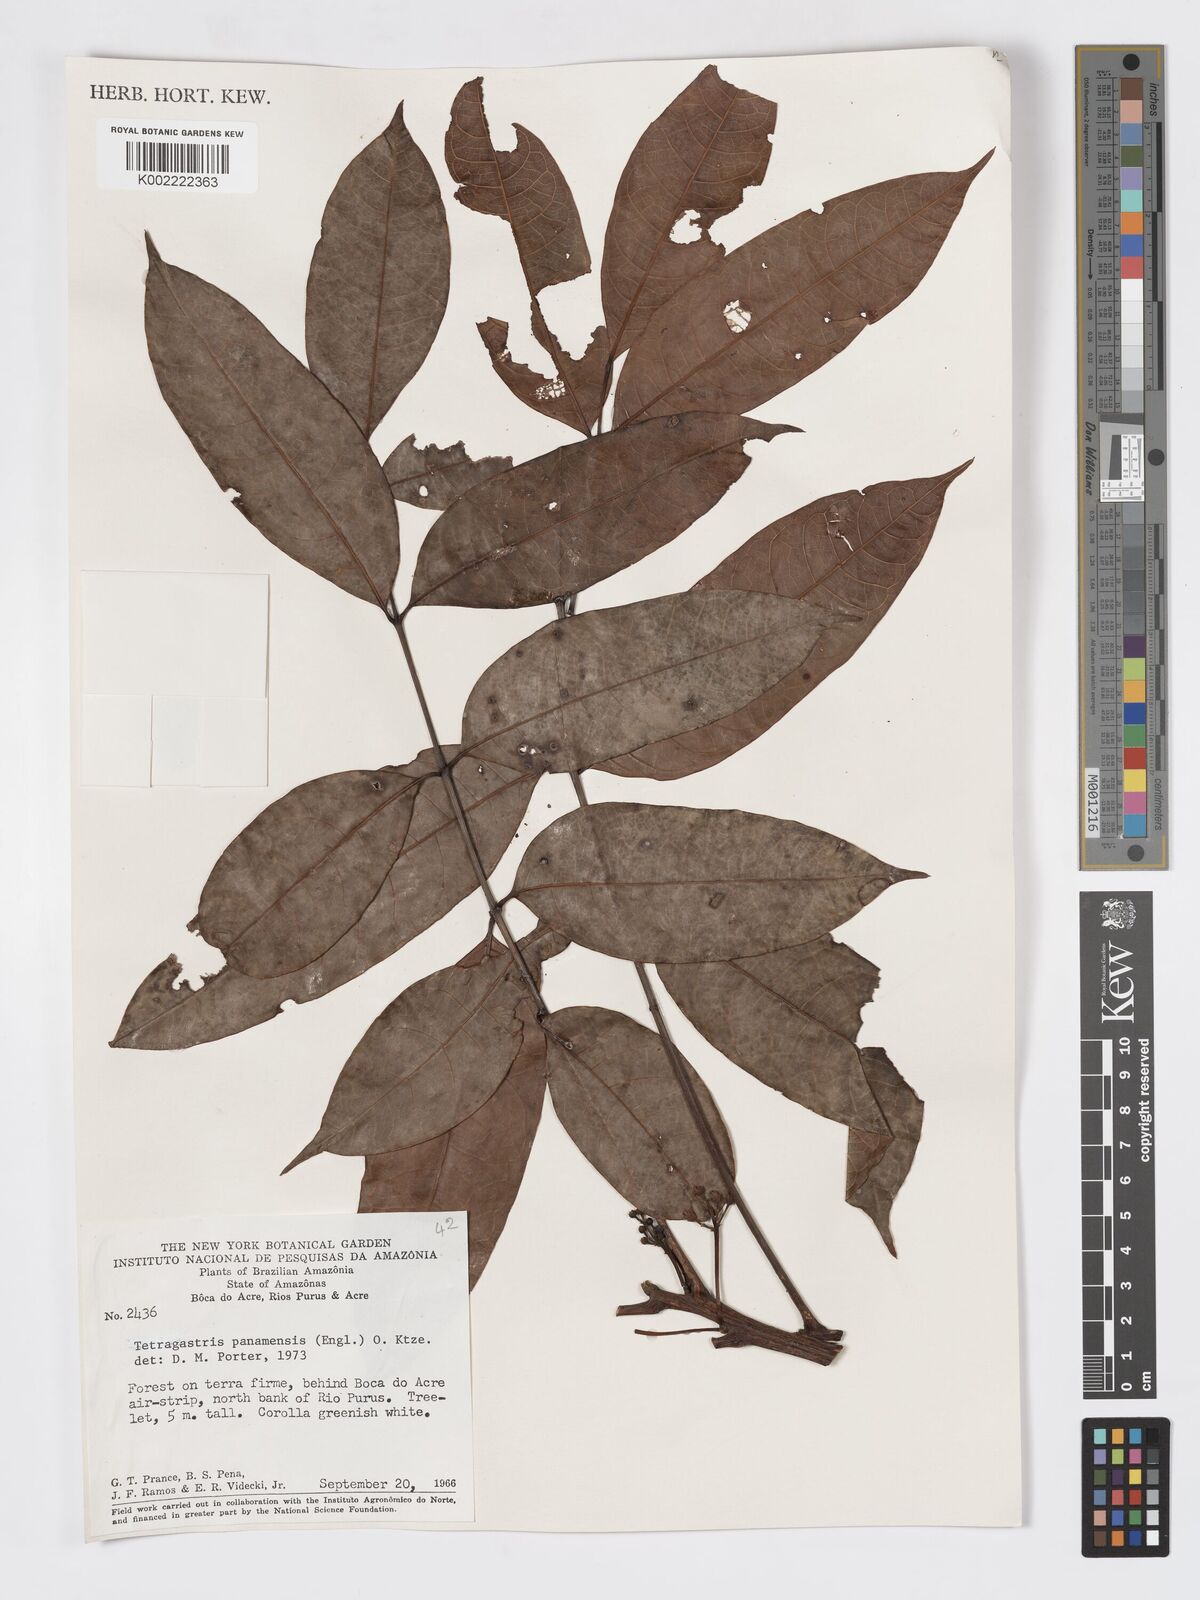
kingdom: Plantae
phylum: Tracheophyta
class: Magnoliopsida
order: Sapindales
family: Burseraceae
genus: Tetragastris
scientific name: Tetragastris panamensis
